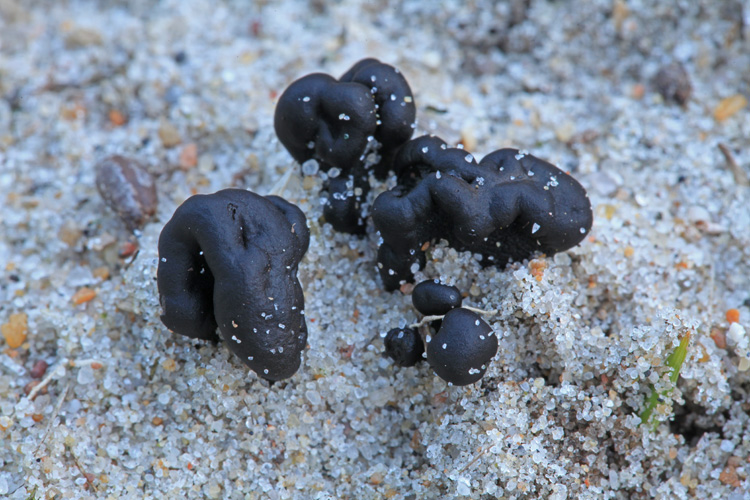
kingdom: Fungi
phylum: Ascomycota
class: Geoglossomycetes
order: Geoglossales
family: Geoglossaceae
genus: Sabuloglossum
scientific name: Sabuloglossum arenarium
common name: klit-jordtunge
